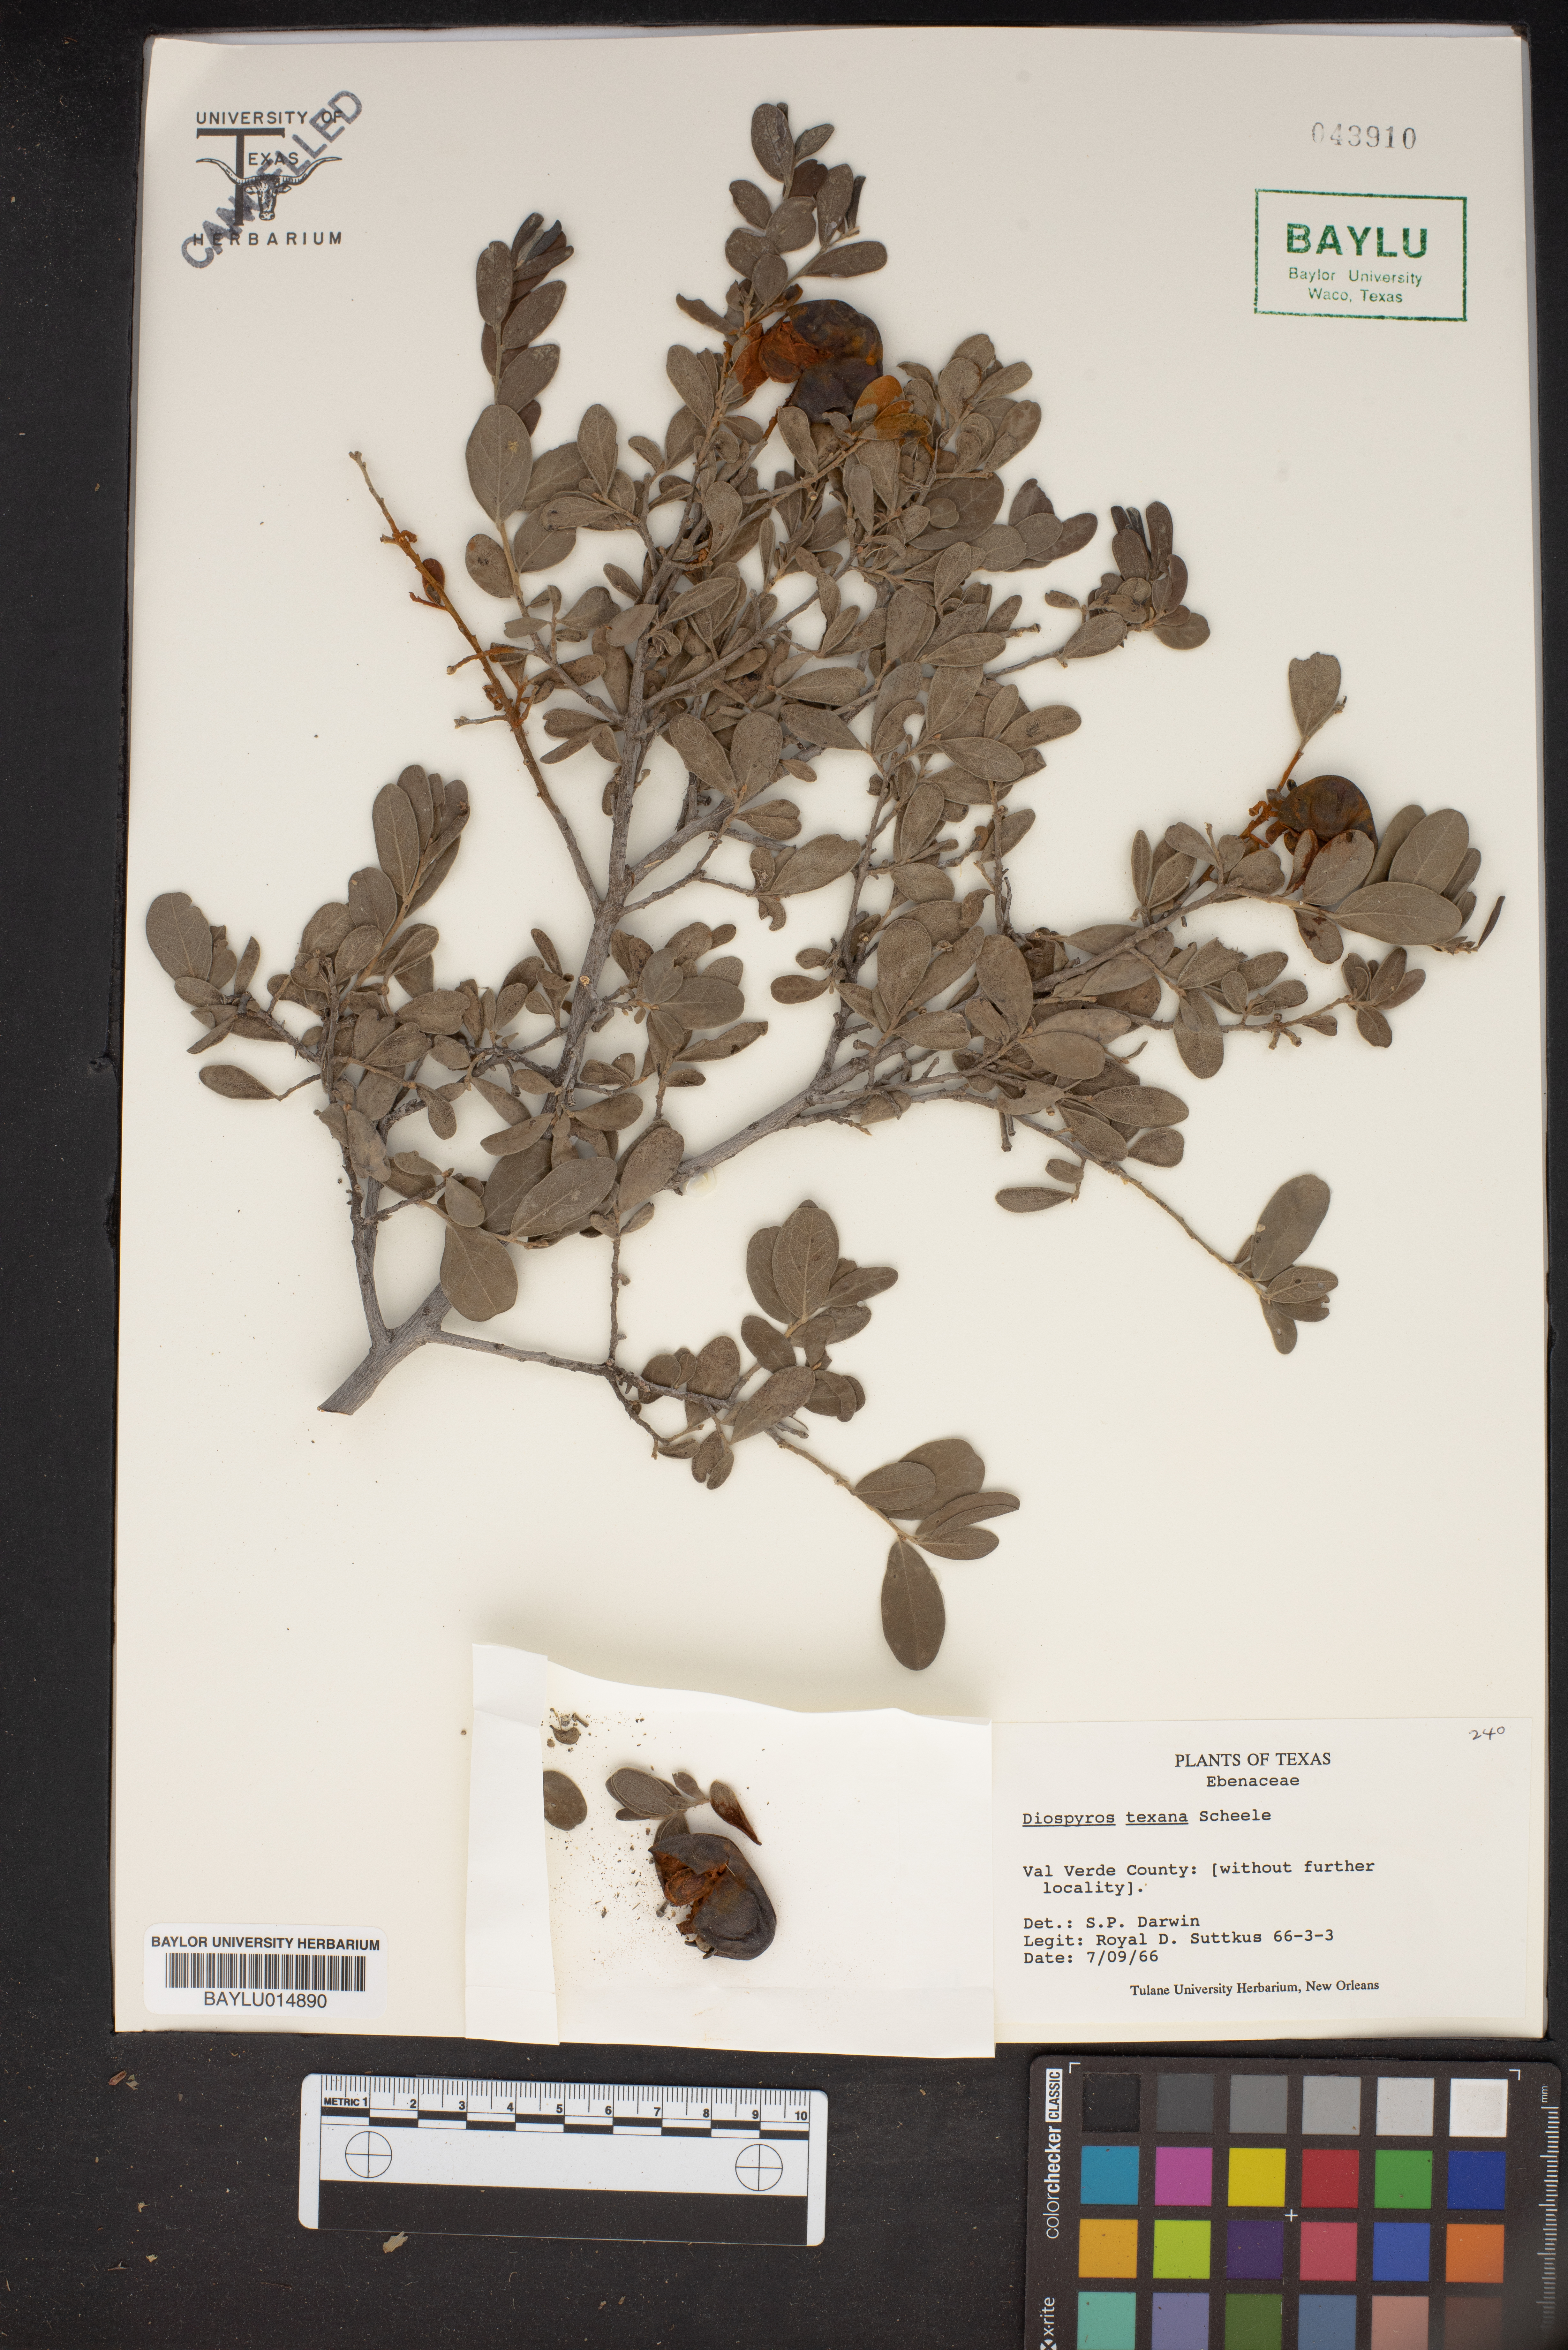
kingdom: Plantae
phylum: Tracheophyta
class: Magnoliopsida
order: Ericales
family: Ebenaceae
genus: Diospyros
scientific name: Diospyros texana
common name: Texas persimmon
